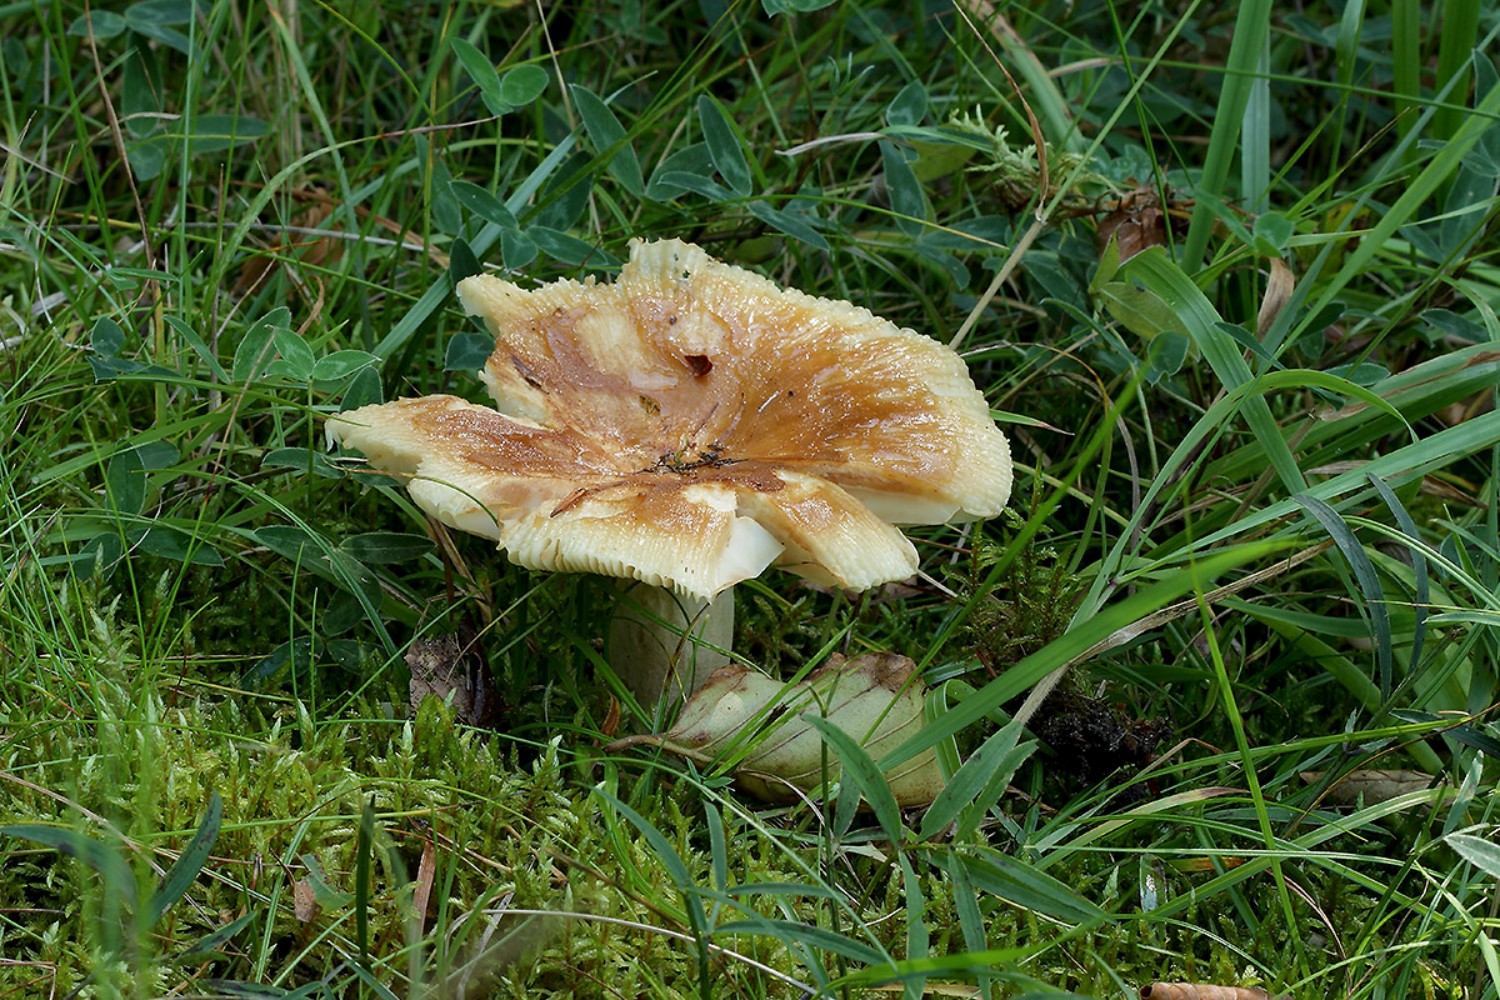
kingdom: Fungi
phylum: Basidiomycota
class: Agaricomycetes
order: Russulales
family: Russulaceae
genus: Russula
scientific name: Russula foetens
